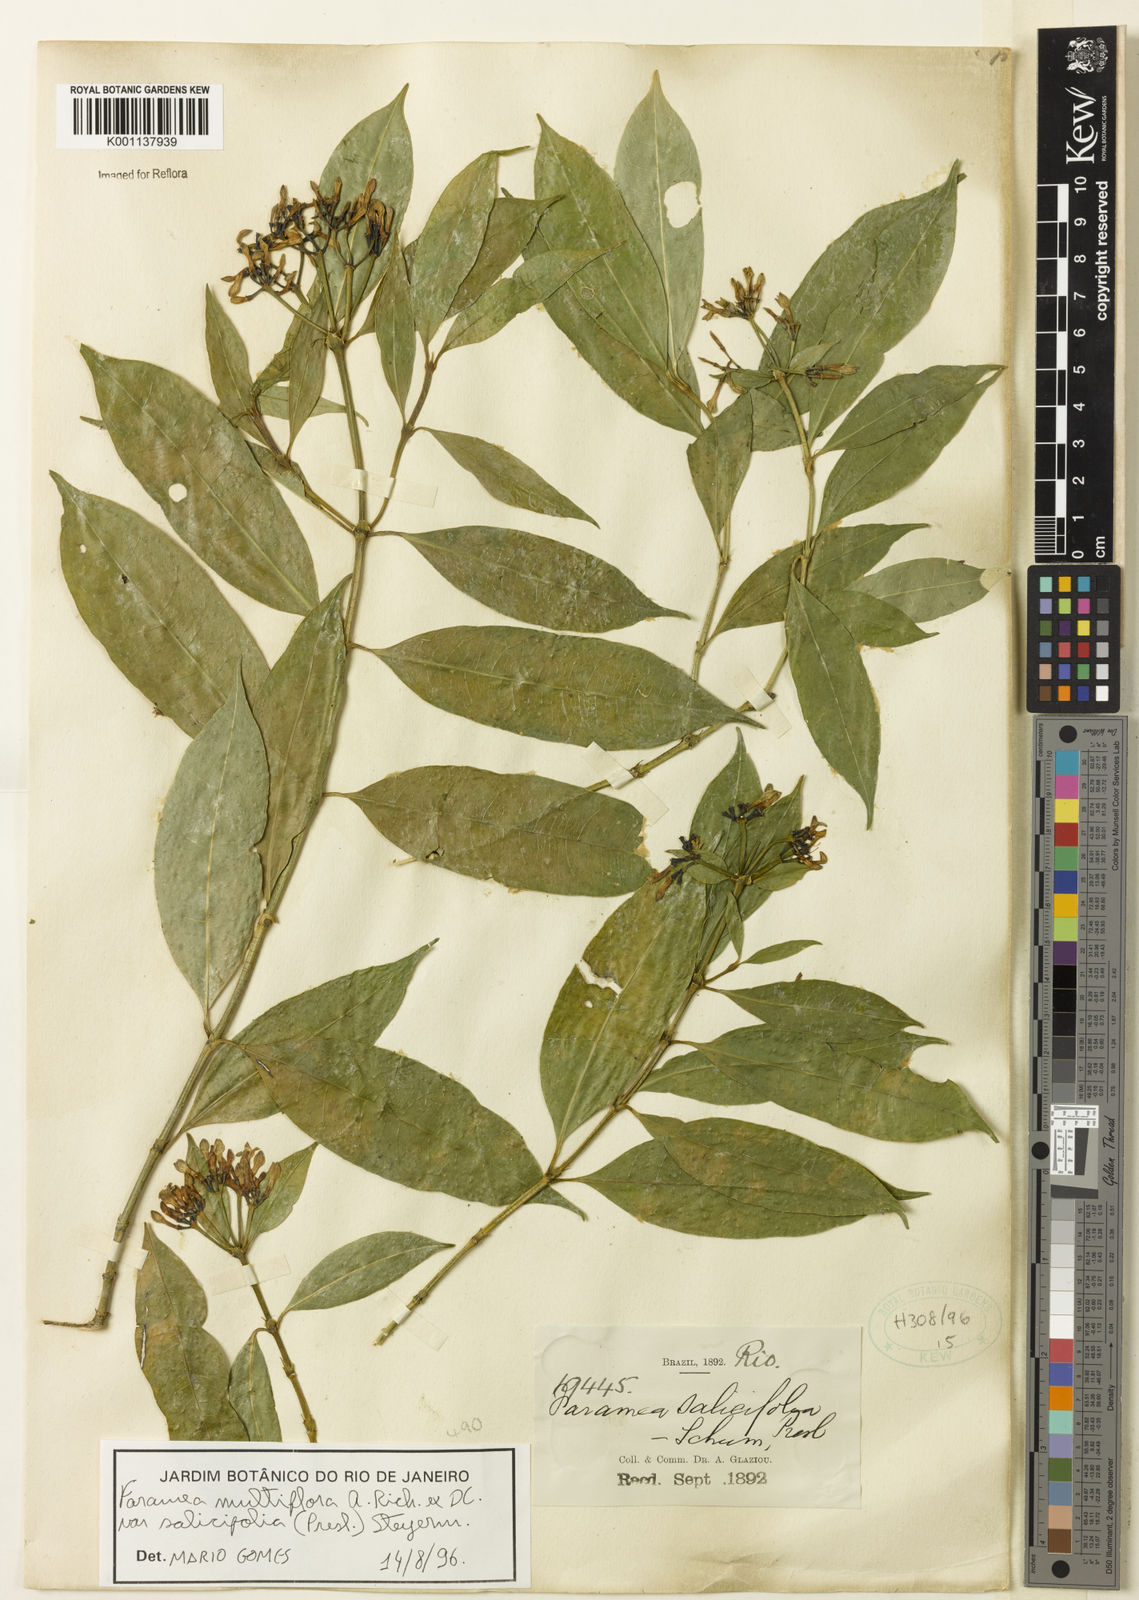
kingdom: Plantae
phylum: Tracheophyta
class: Magnoliopsida
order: Gentianales
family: Rubiaceae
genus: Faramea
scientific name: Faramea multiflora
